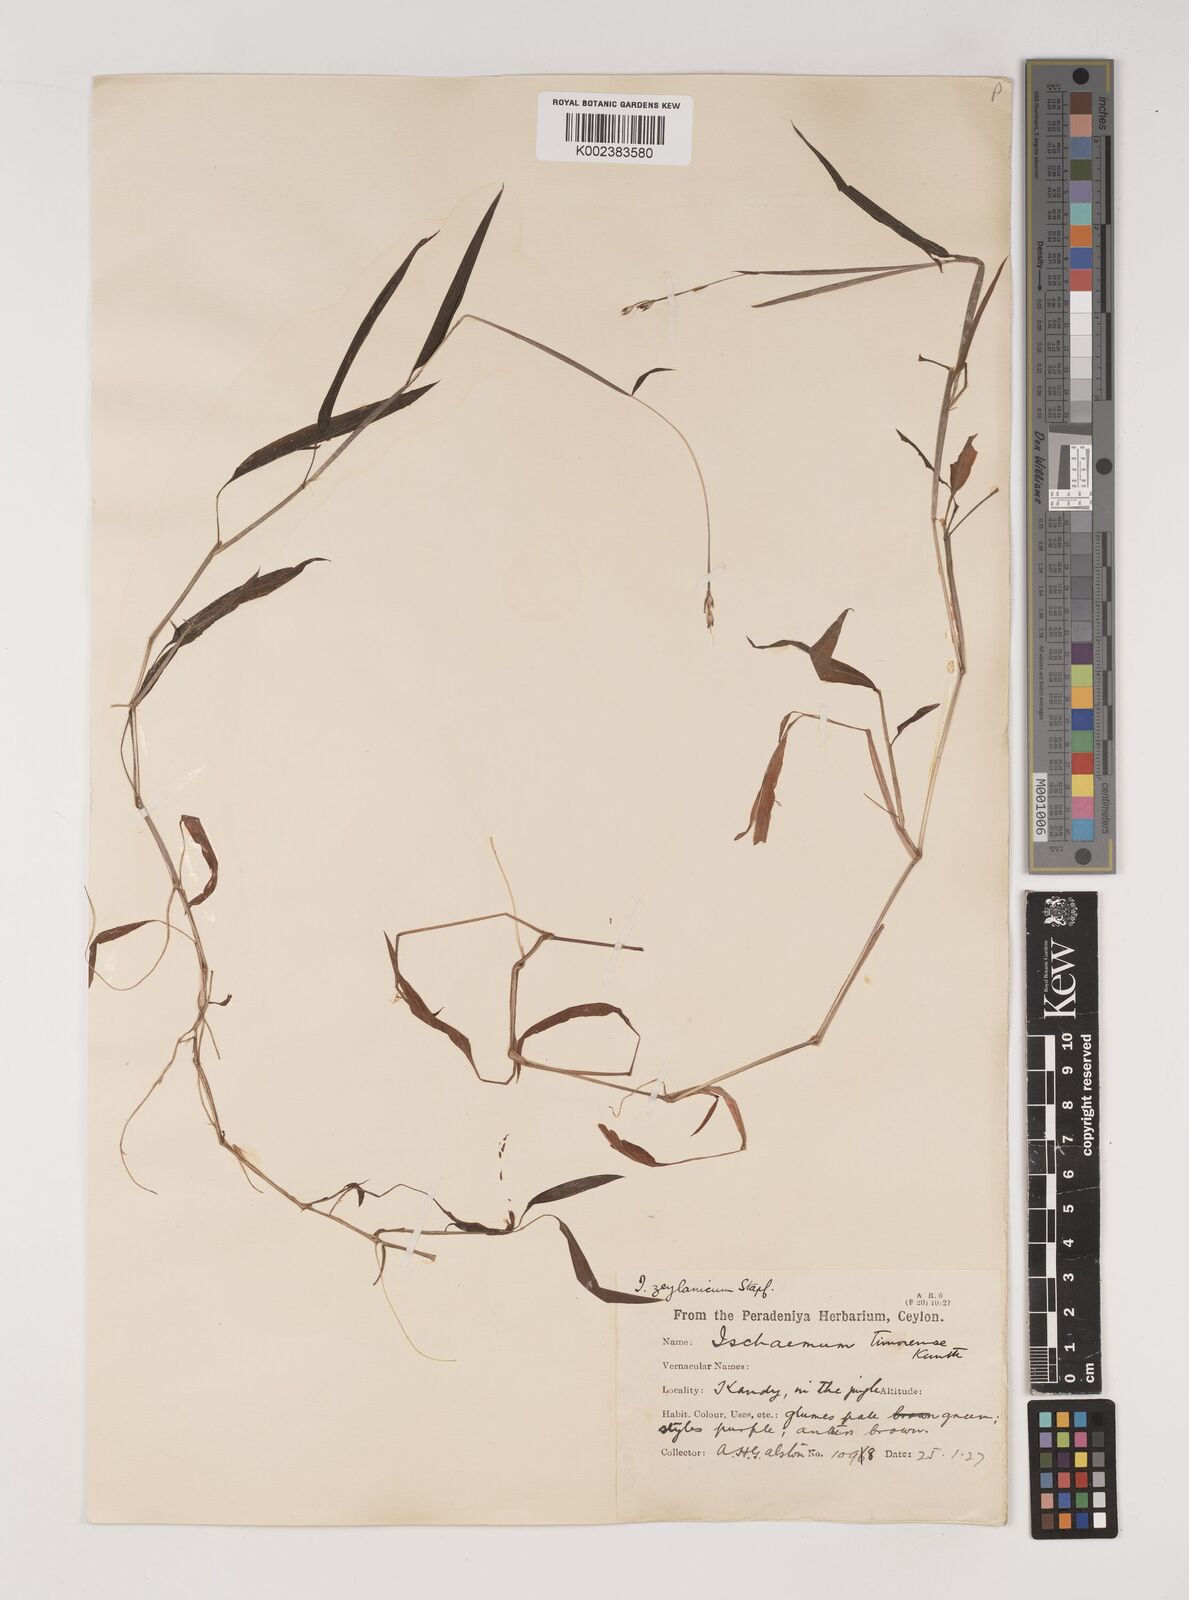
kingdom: Plantae
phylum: Tracheophyta
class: Liliopsida
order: Poales
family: Poaceae
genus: Ischaemum
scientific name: Ischaemum zeylanicola
